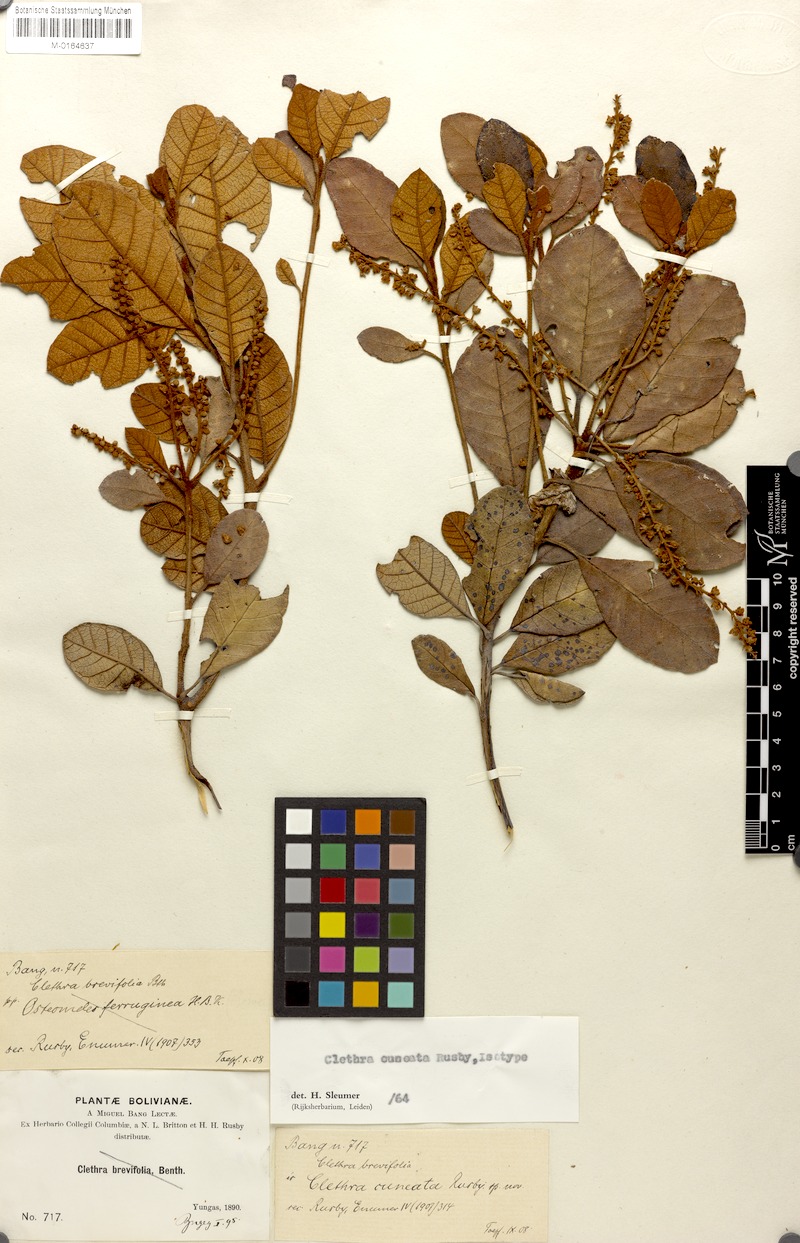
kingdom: Plantae
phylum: Tracheophyta
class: Magnoliopsida
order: Ericales
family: Clethraceae
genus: Clethra
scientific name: Clethra cuneata
